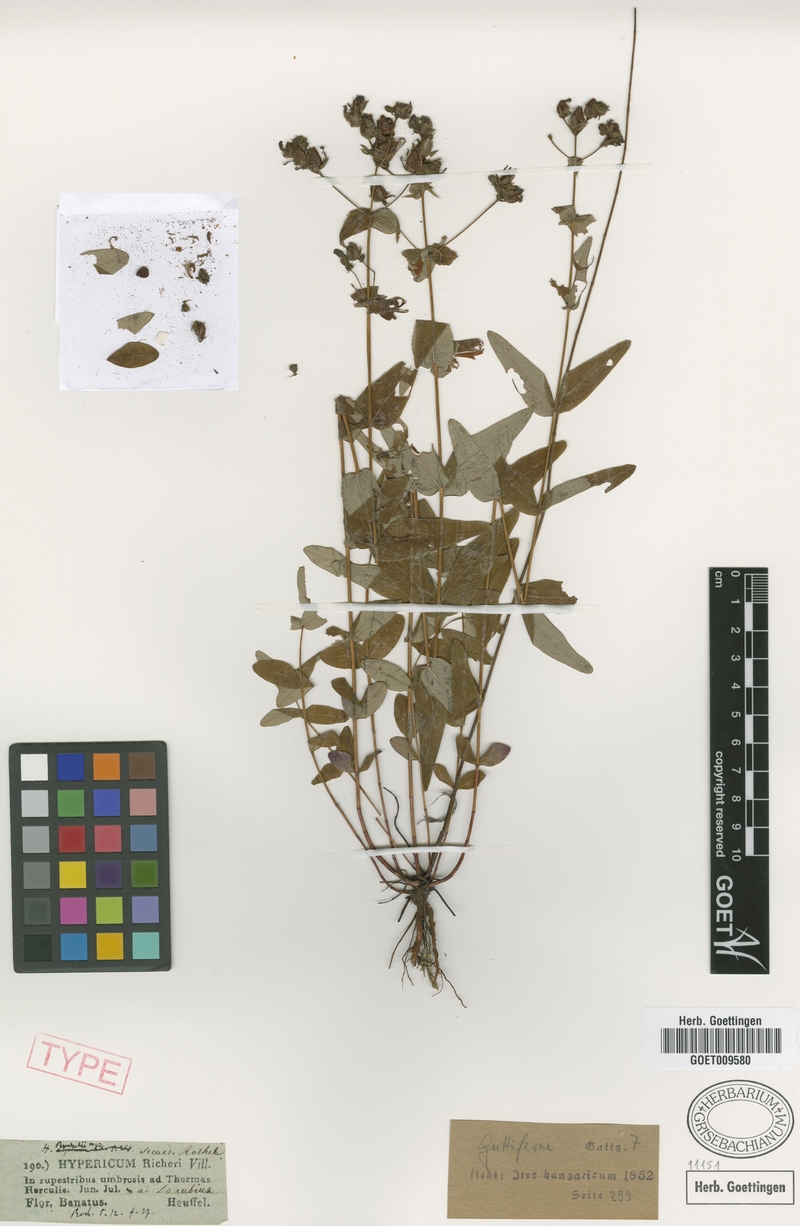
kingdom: Plantae
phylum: Tracheophyta
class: Magnoliopsida
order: Malpighiales
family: Hypericaceae
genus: Hypericum
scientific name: Hypericum rochelii
